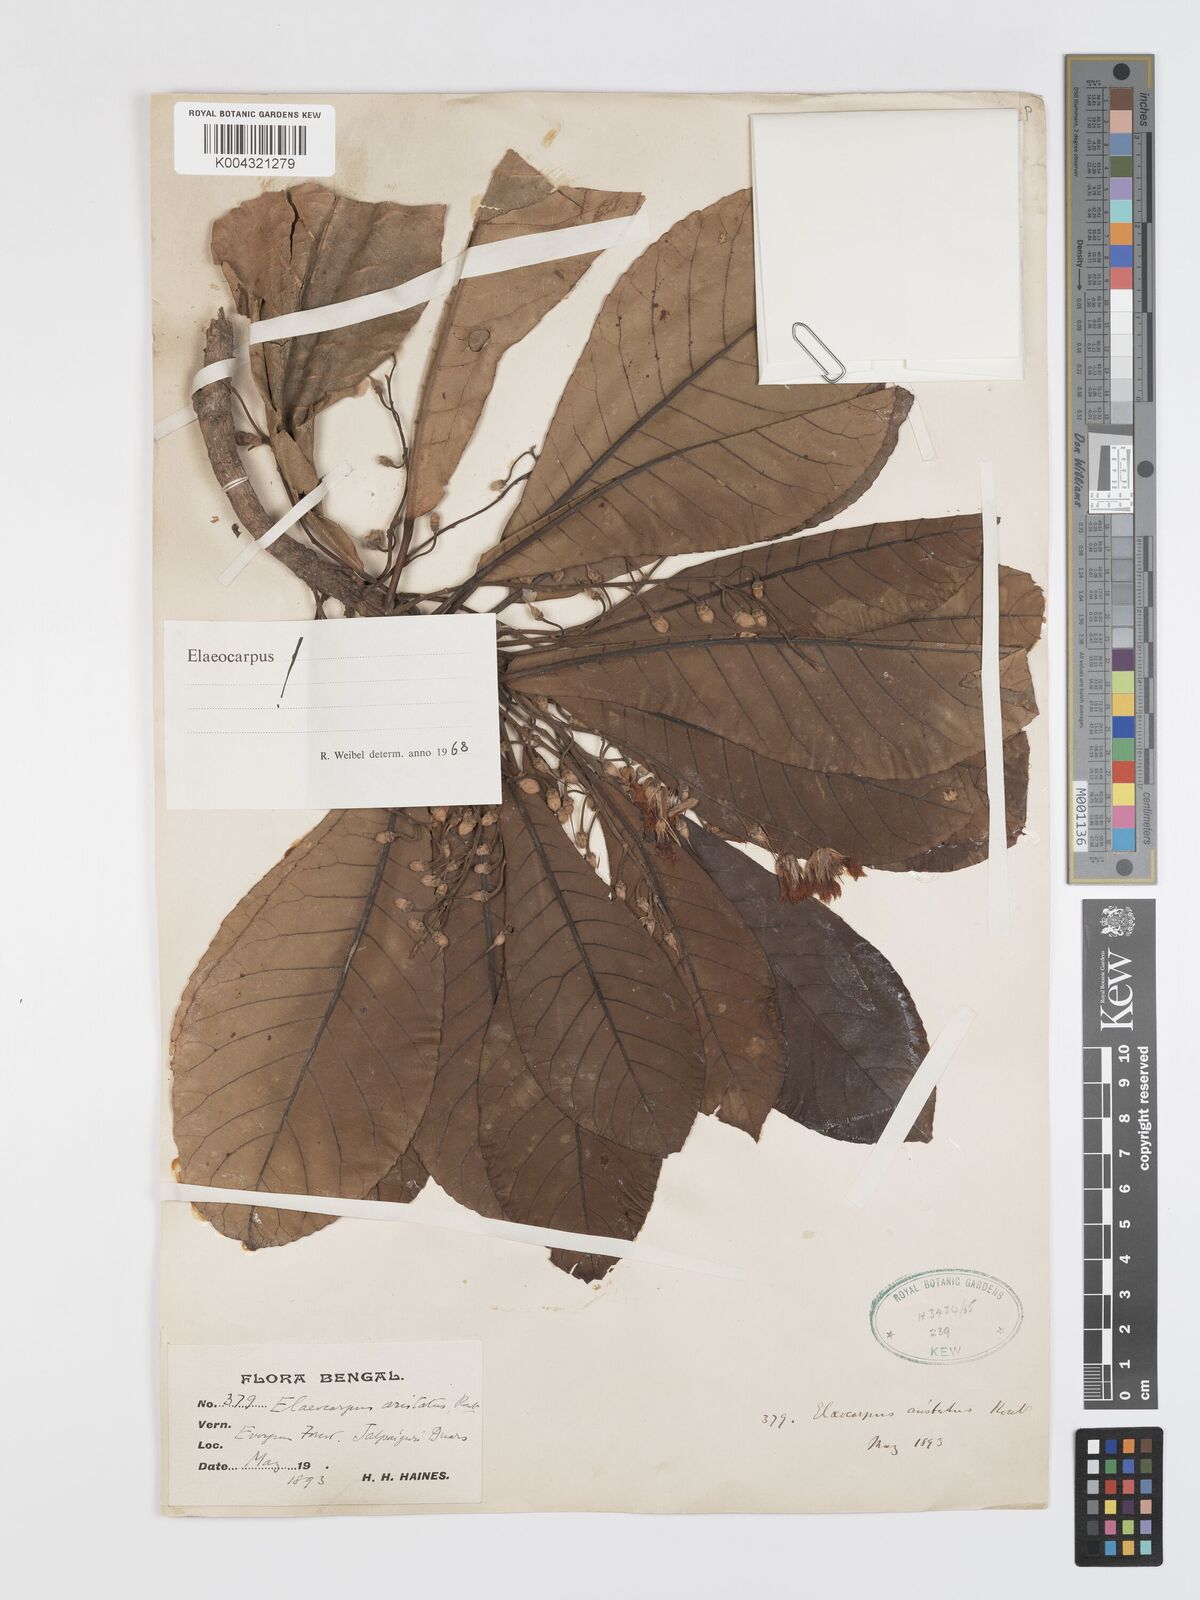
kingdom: Plantae
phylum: Tracheophyta
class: Magnoliopsida
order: Oxalidales
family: Elaeocarpaceae
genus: Elaeocarpus
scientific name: Elaeocarpus aristatus
